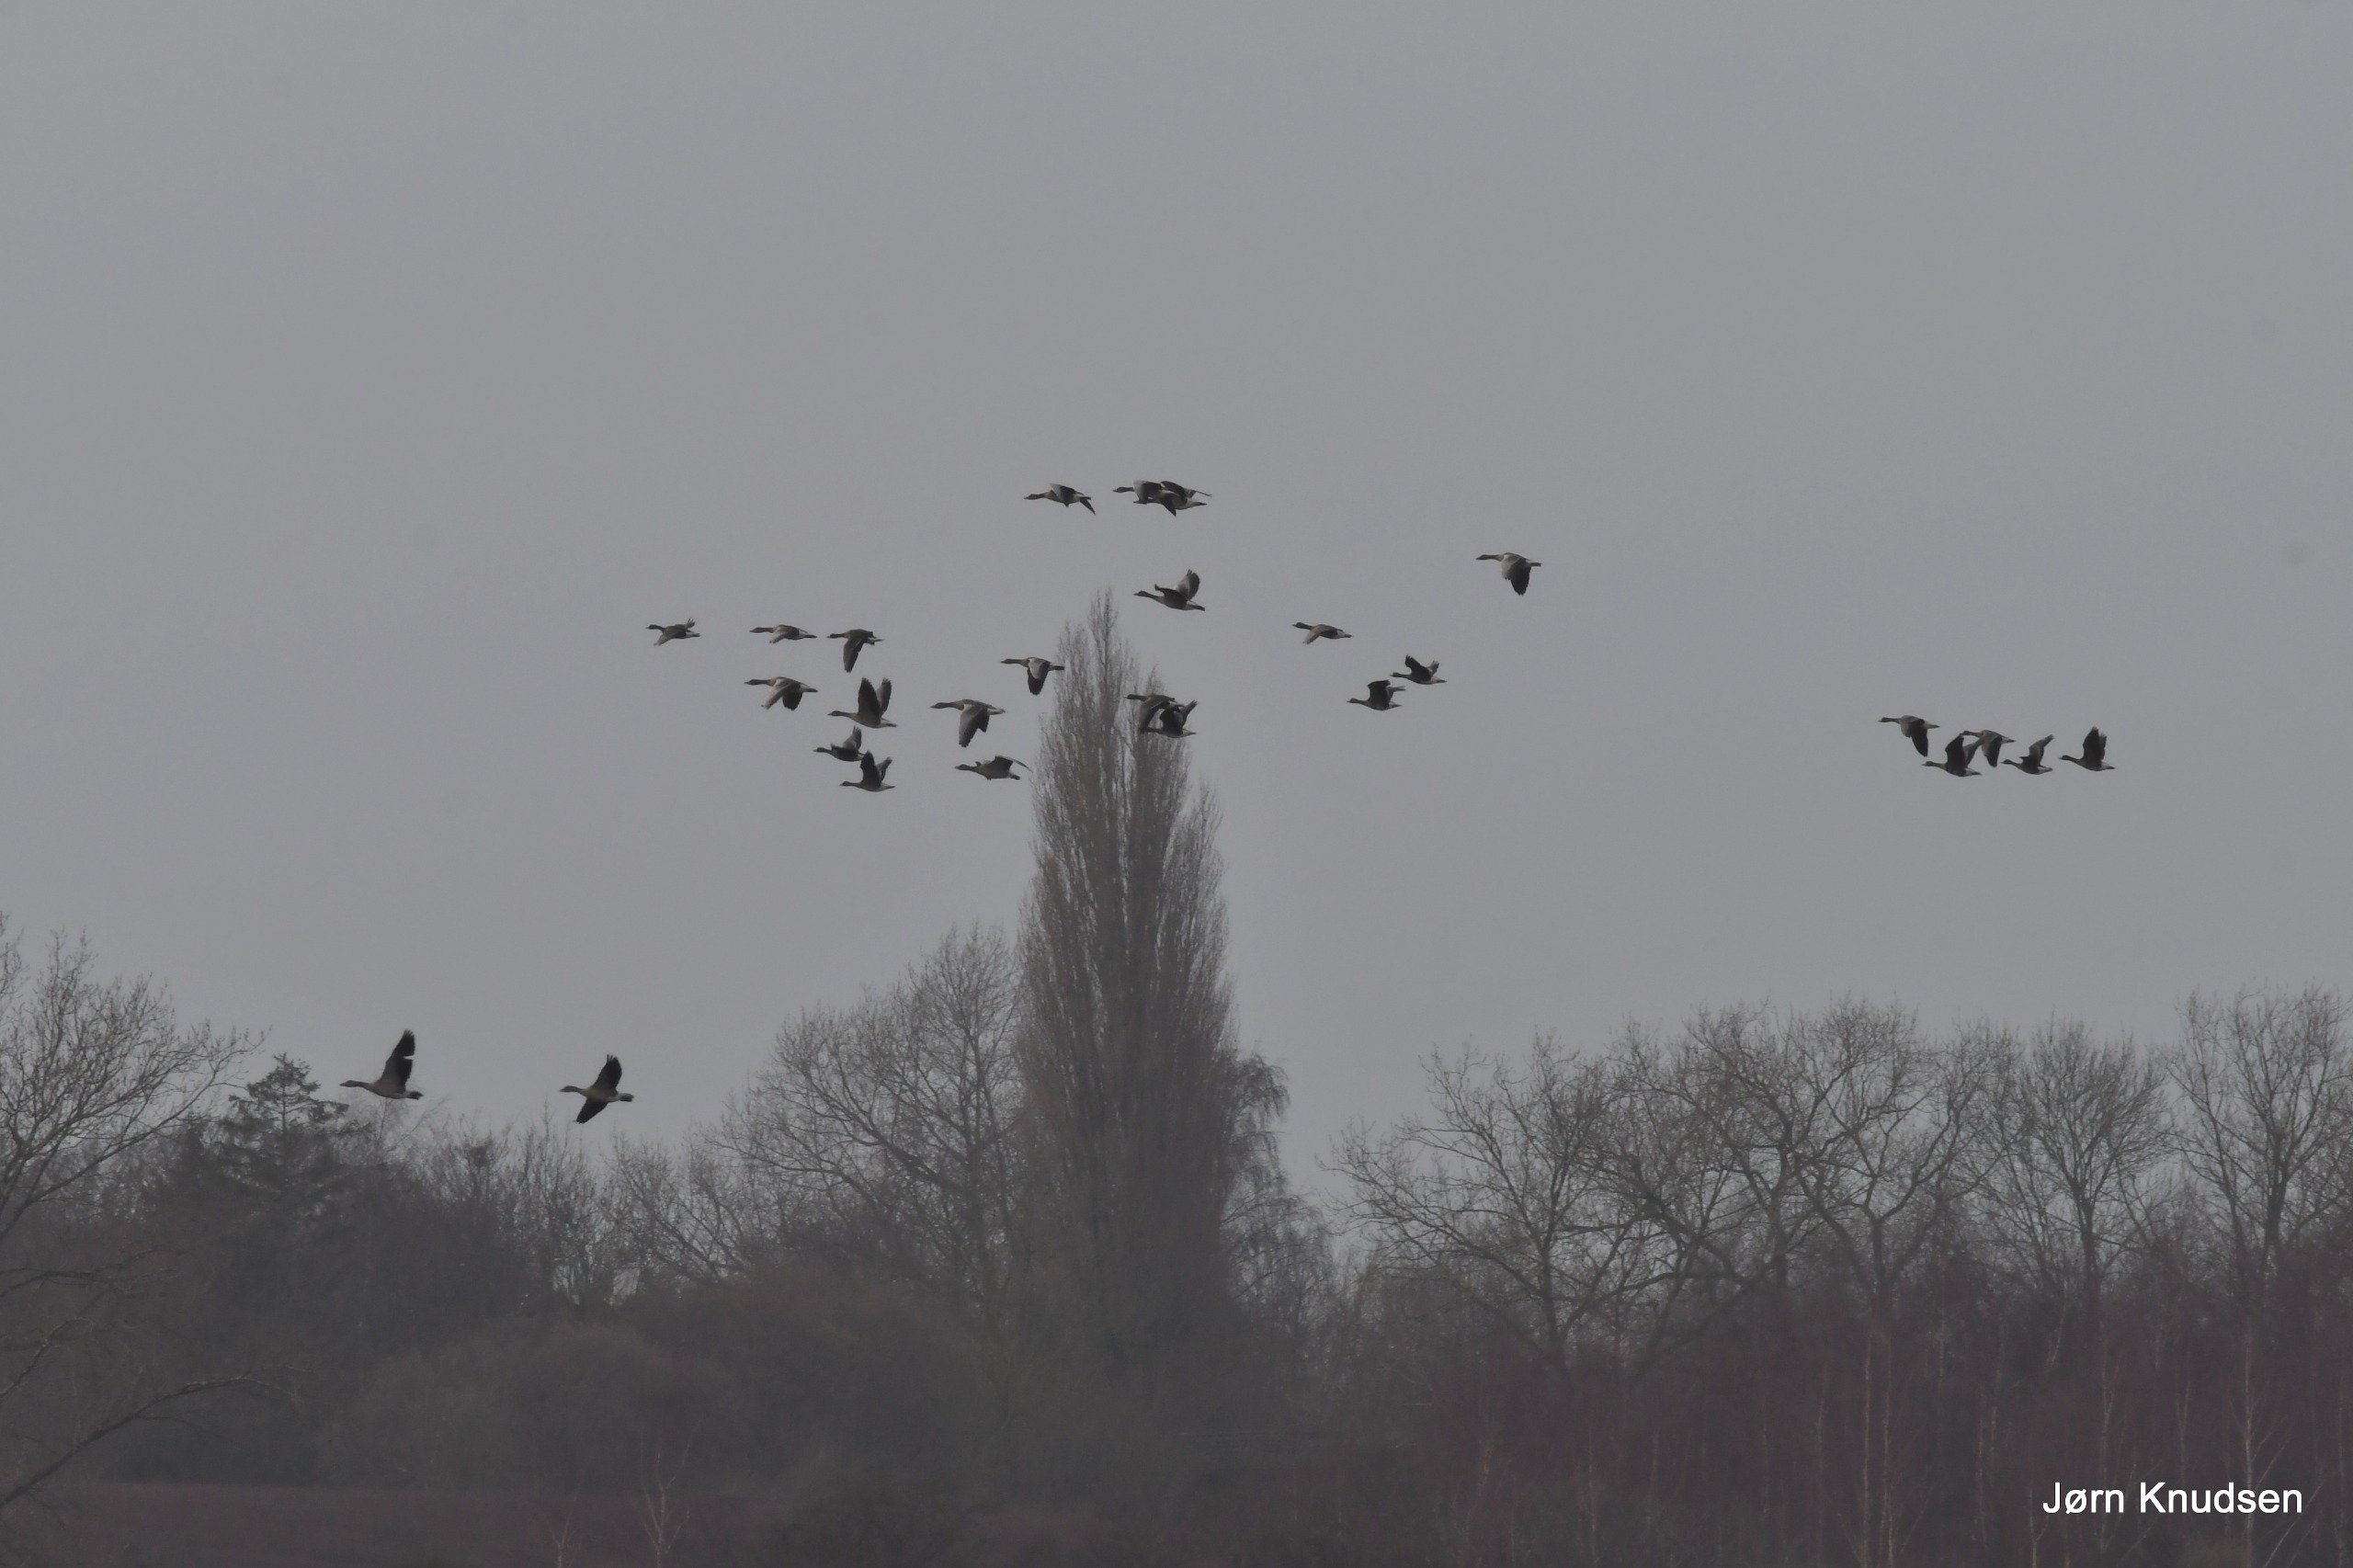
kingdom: Animalia
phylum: Chordata
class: Aves
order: Anseriformes
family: Anatidae
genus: Anser
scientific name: Anser anser
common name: Grågås
